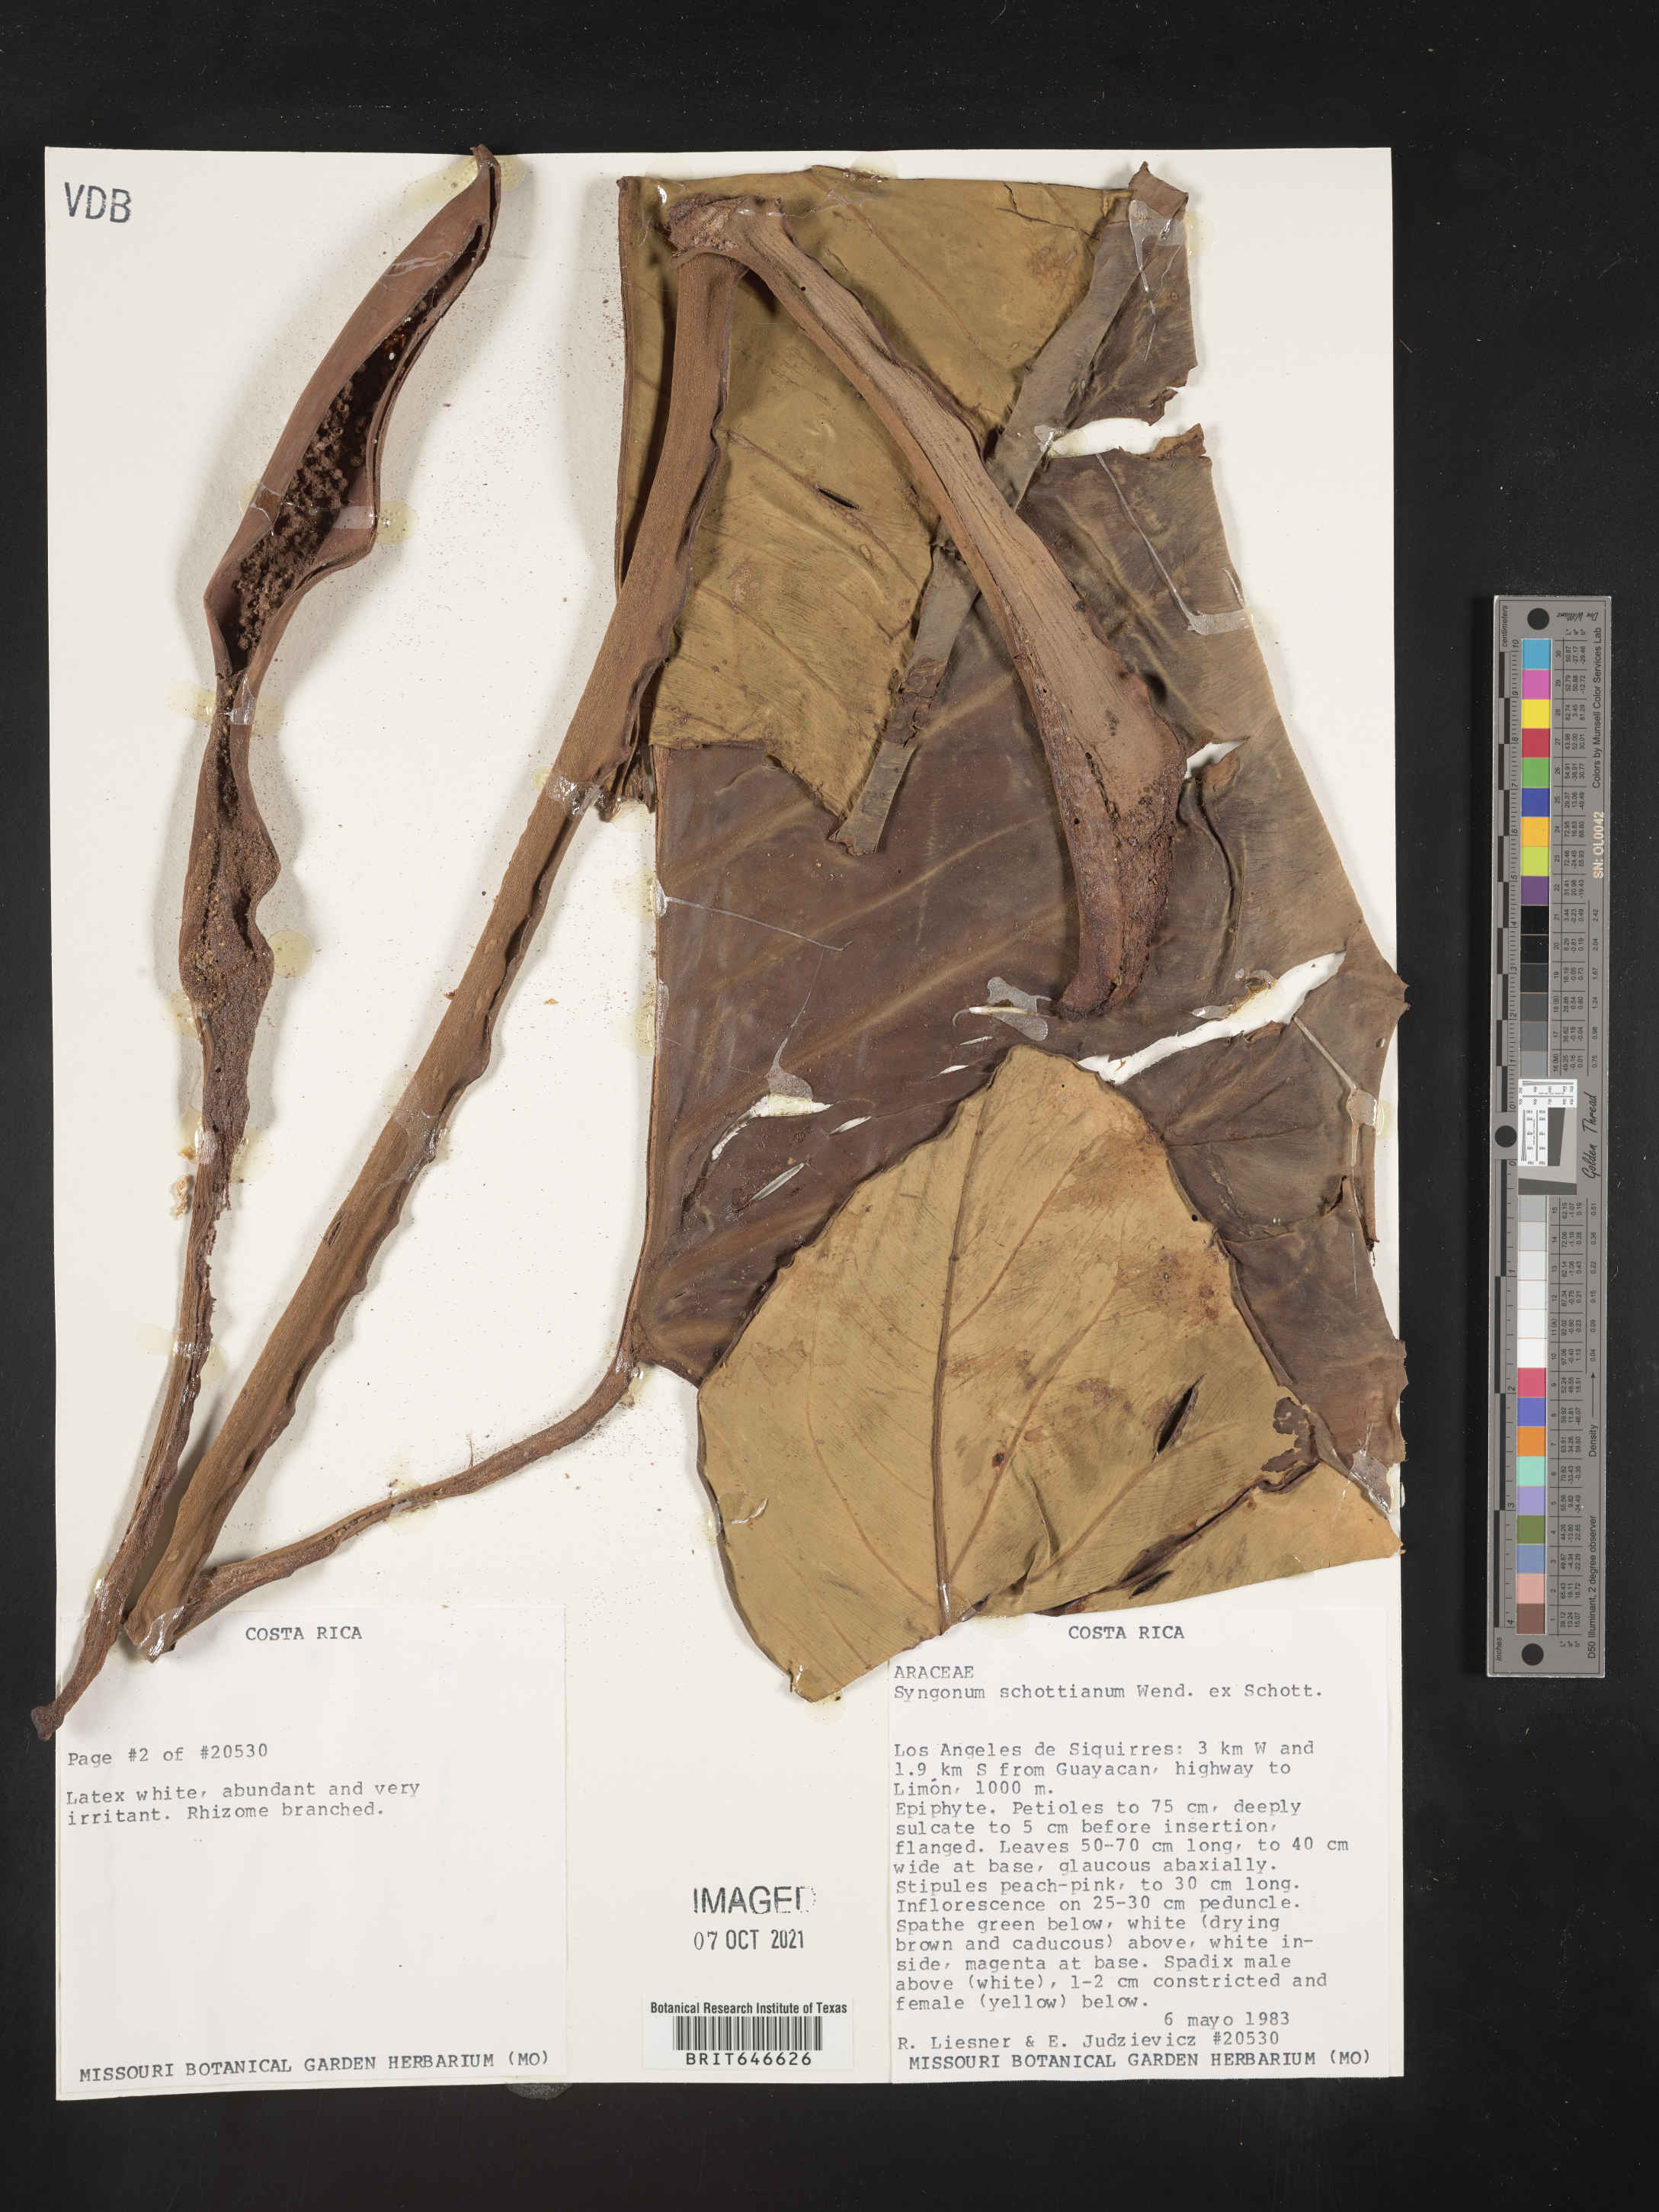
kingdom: Plantae
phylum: Tracheophyta
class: Liliopsida
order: Alismatales
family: Araceae
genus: Syngonium
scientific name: Syngonium schottianum
